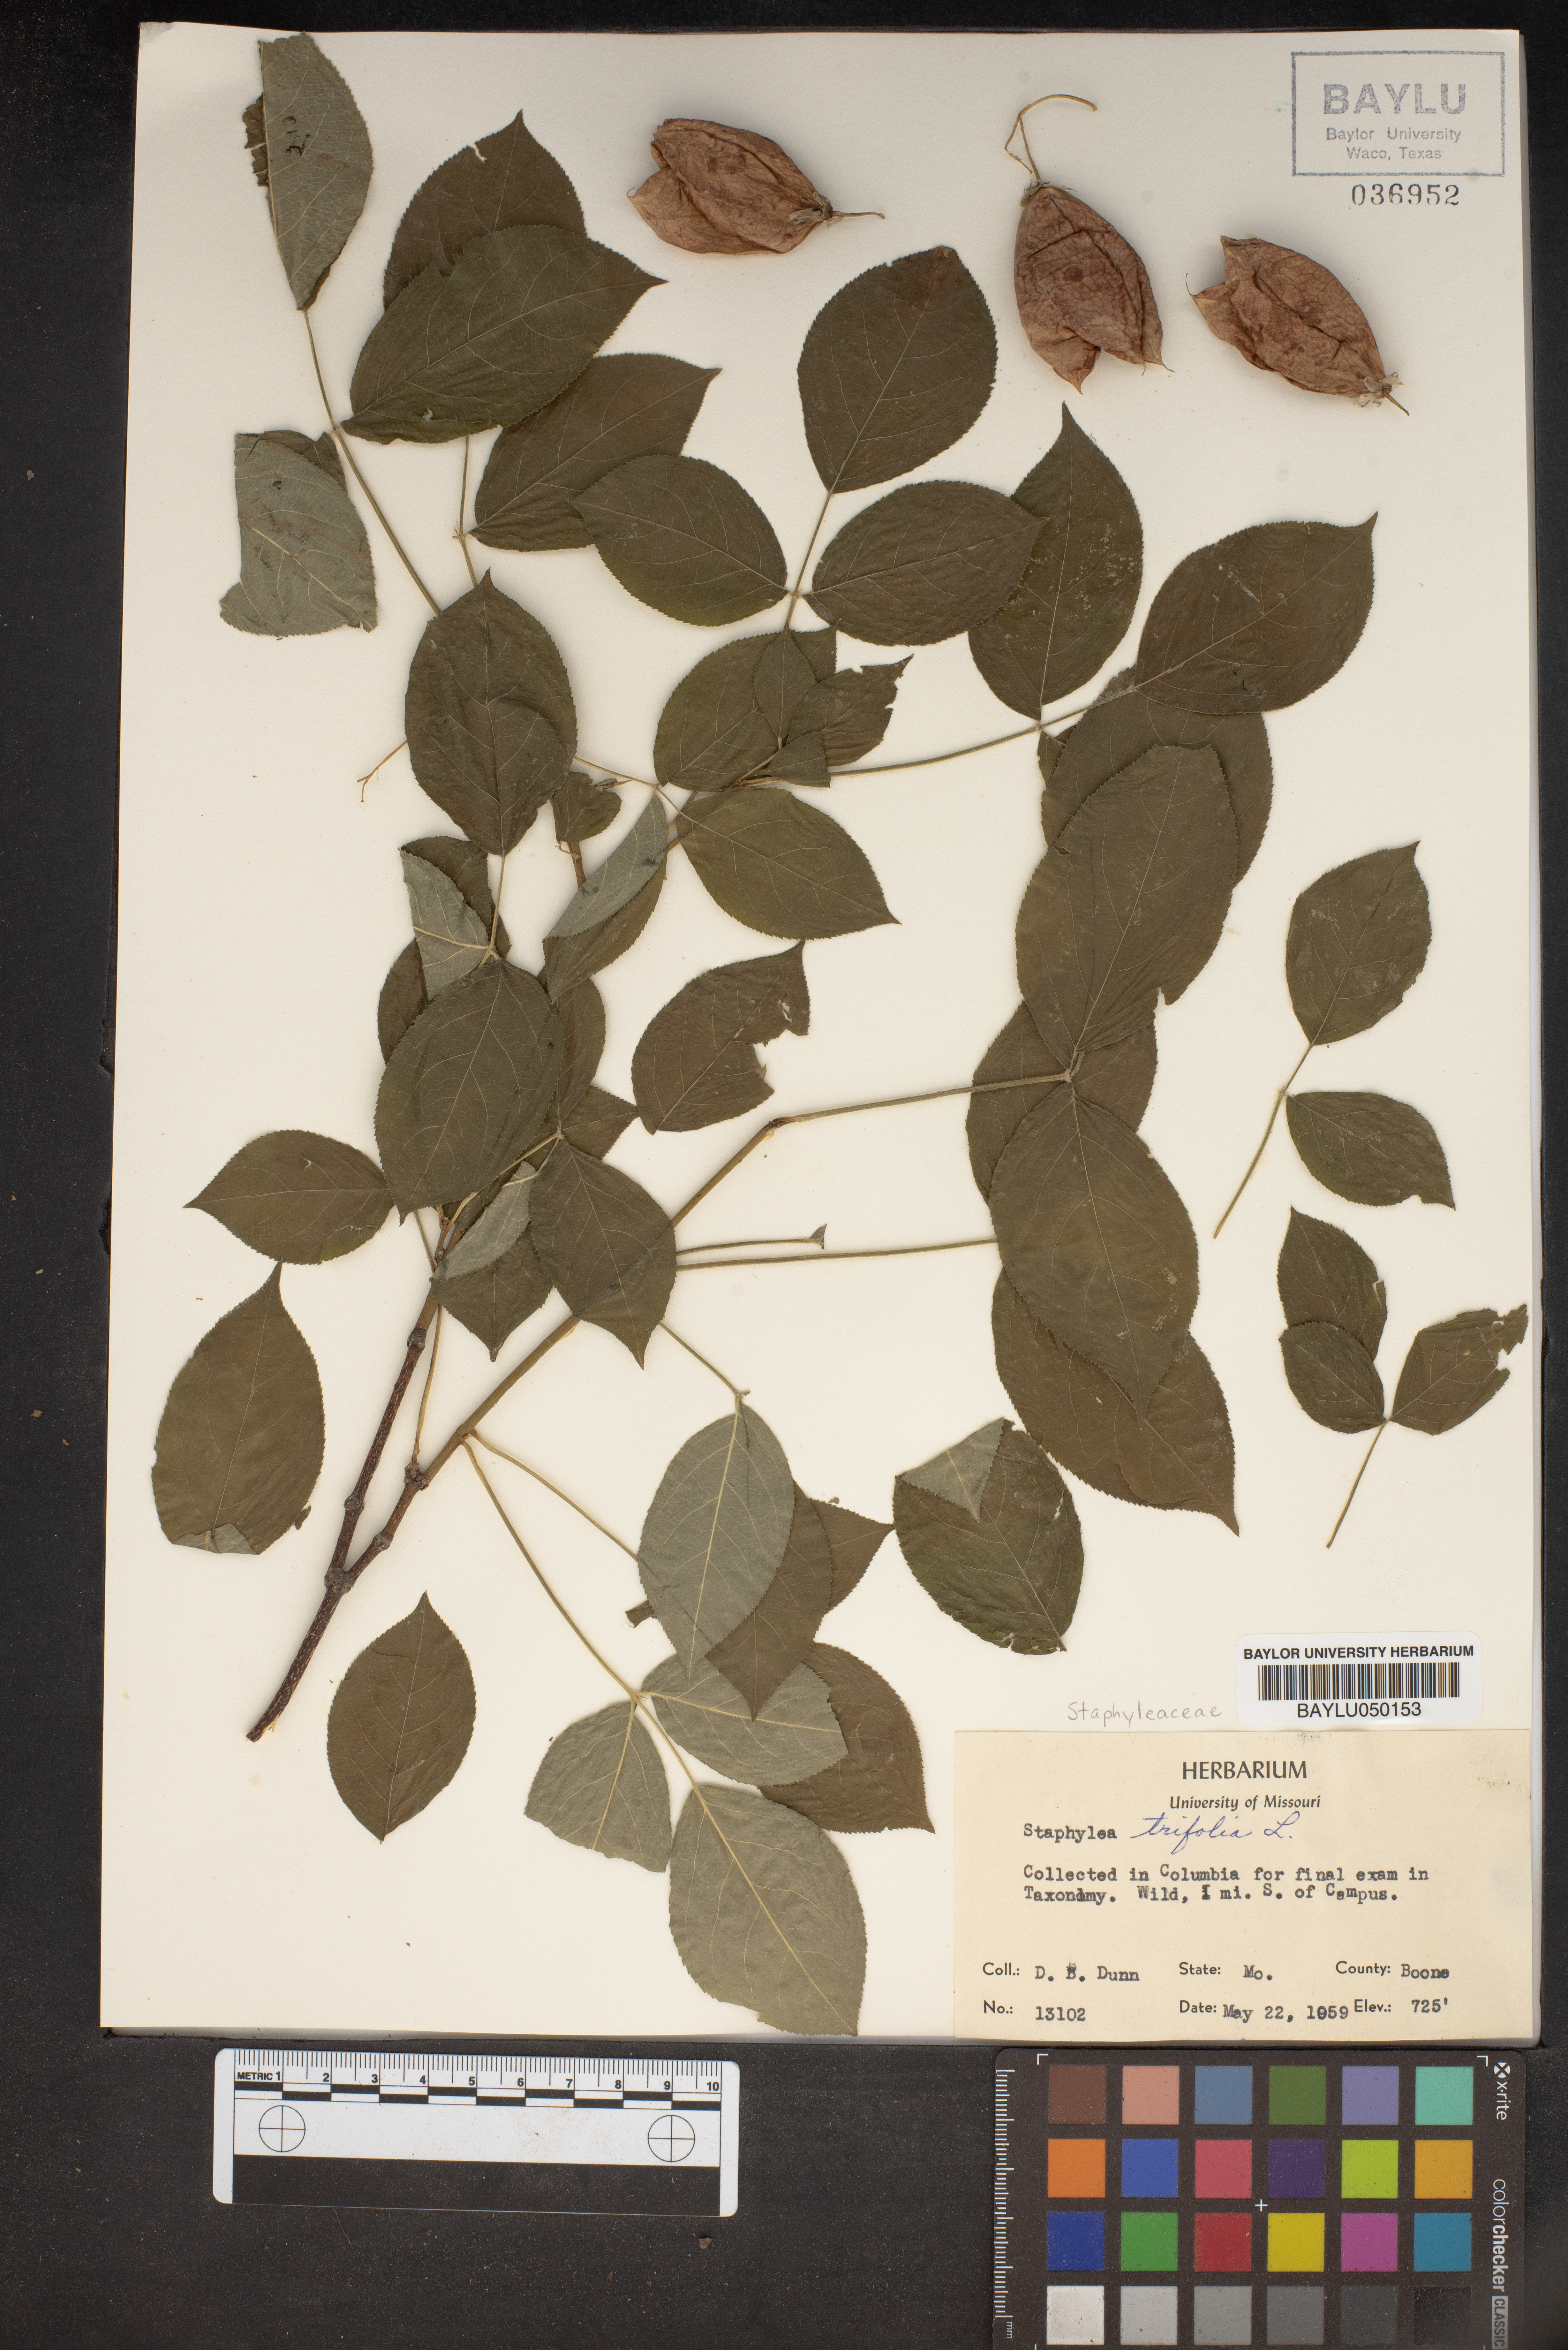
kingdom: Plantae
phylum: Tracheophyta
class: Magnoliopsida
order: Crossosomatales
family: Staphyleaceae
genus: Staphylea
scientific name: Staphylea trifolia
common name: American bladdernut
